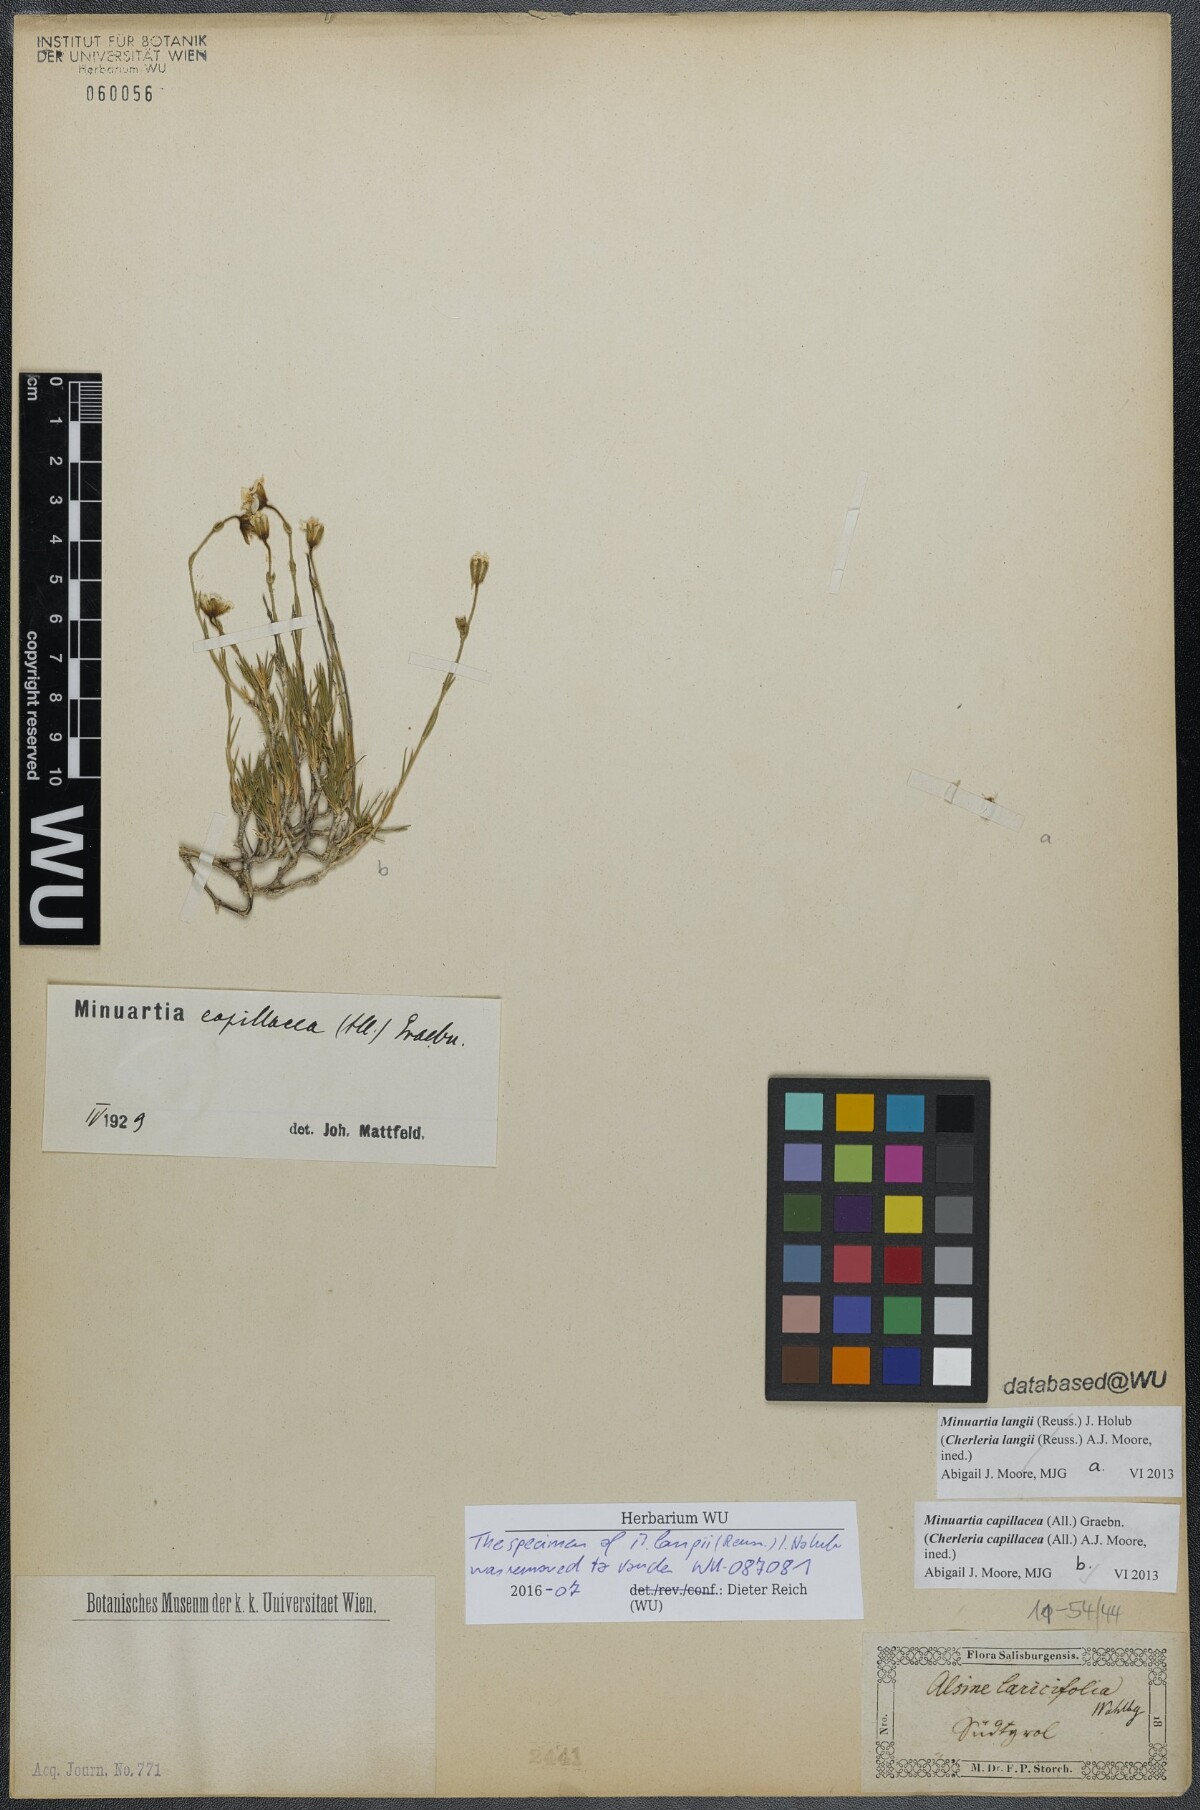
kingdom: Plantae
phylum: Tracheophyta
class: Magnoliopsida
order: Caryophyllales
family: Caryophyllaceae
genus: Cherleria
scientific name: Cherleria capillacea
